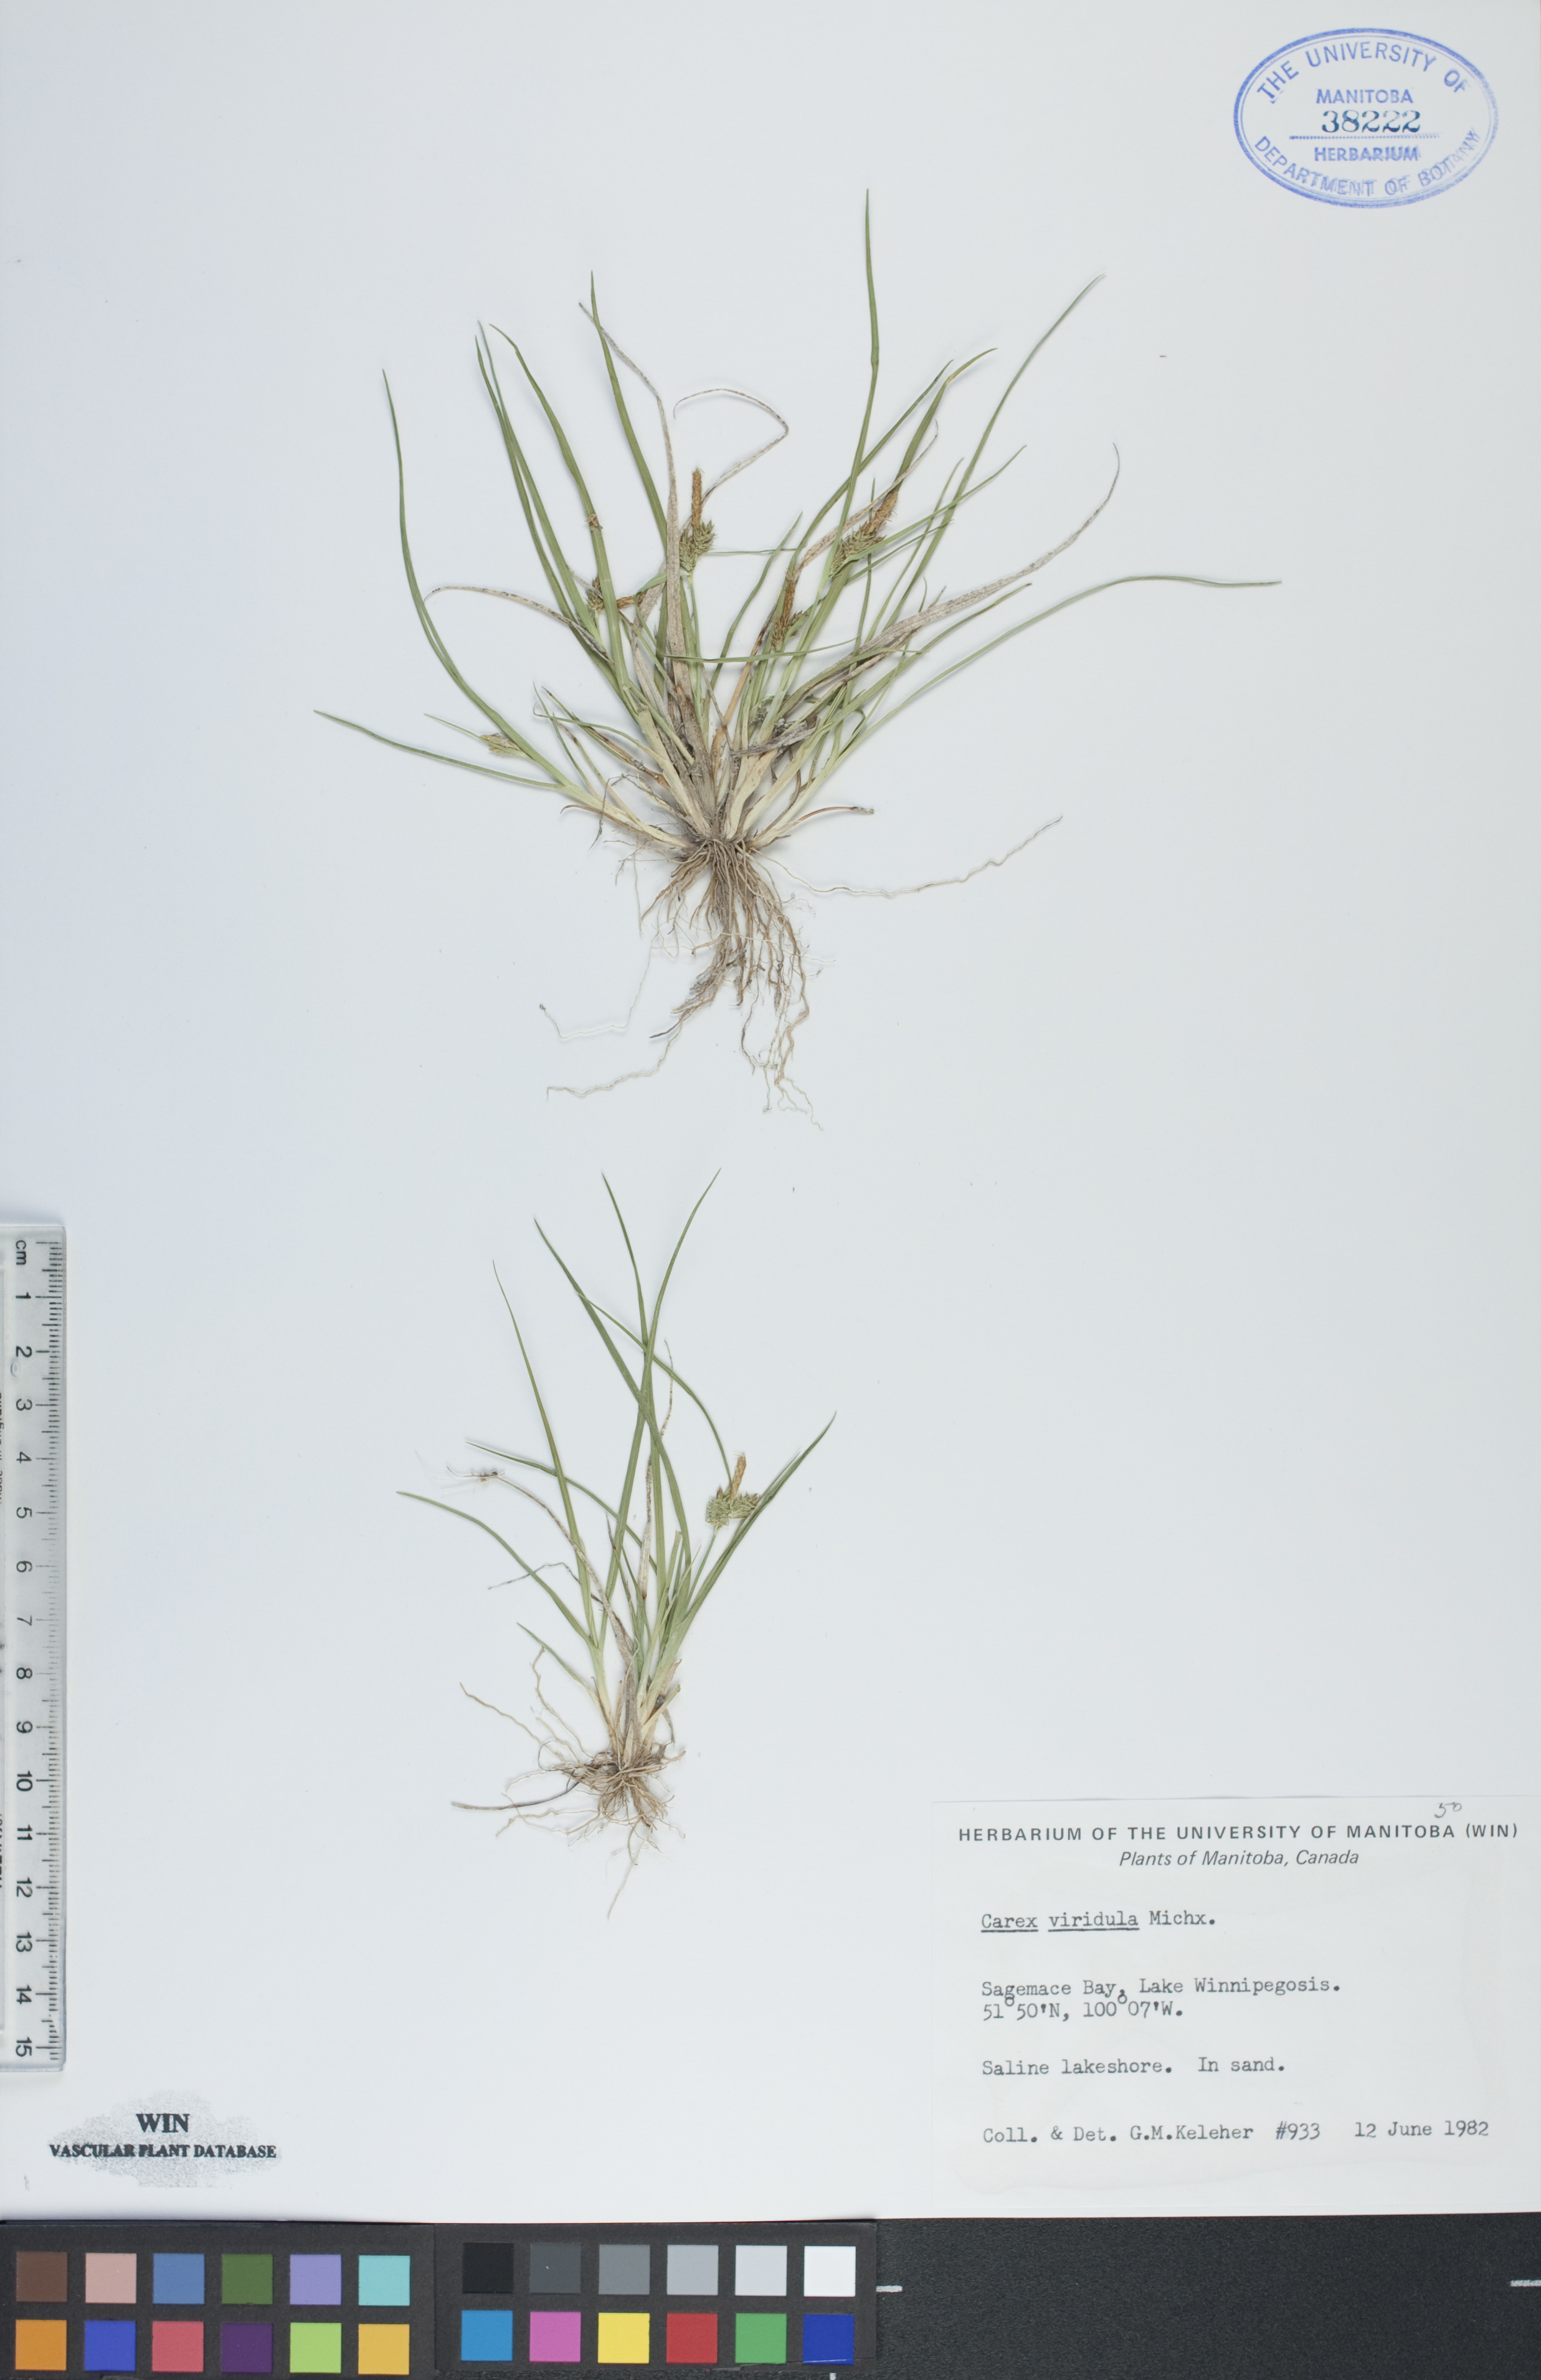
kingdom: Plantae
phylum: Tracheophyta
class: Liliopsida
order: Poales
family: Cyperaceae
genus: Carex
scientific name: Carex oederi
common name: Common & small-fruited yellow-sedge
